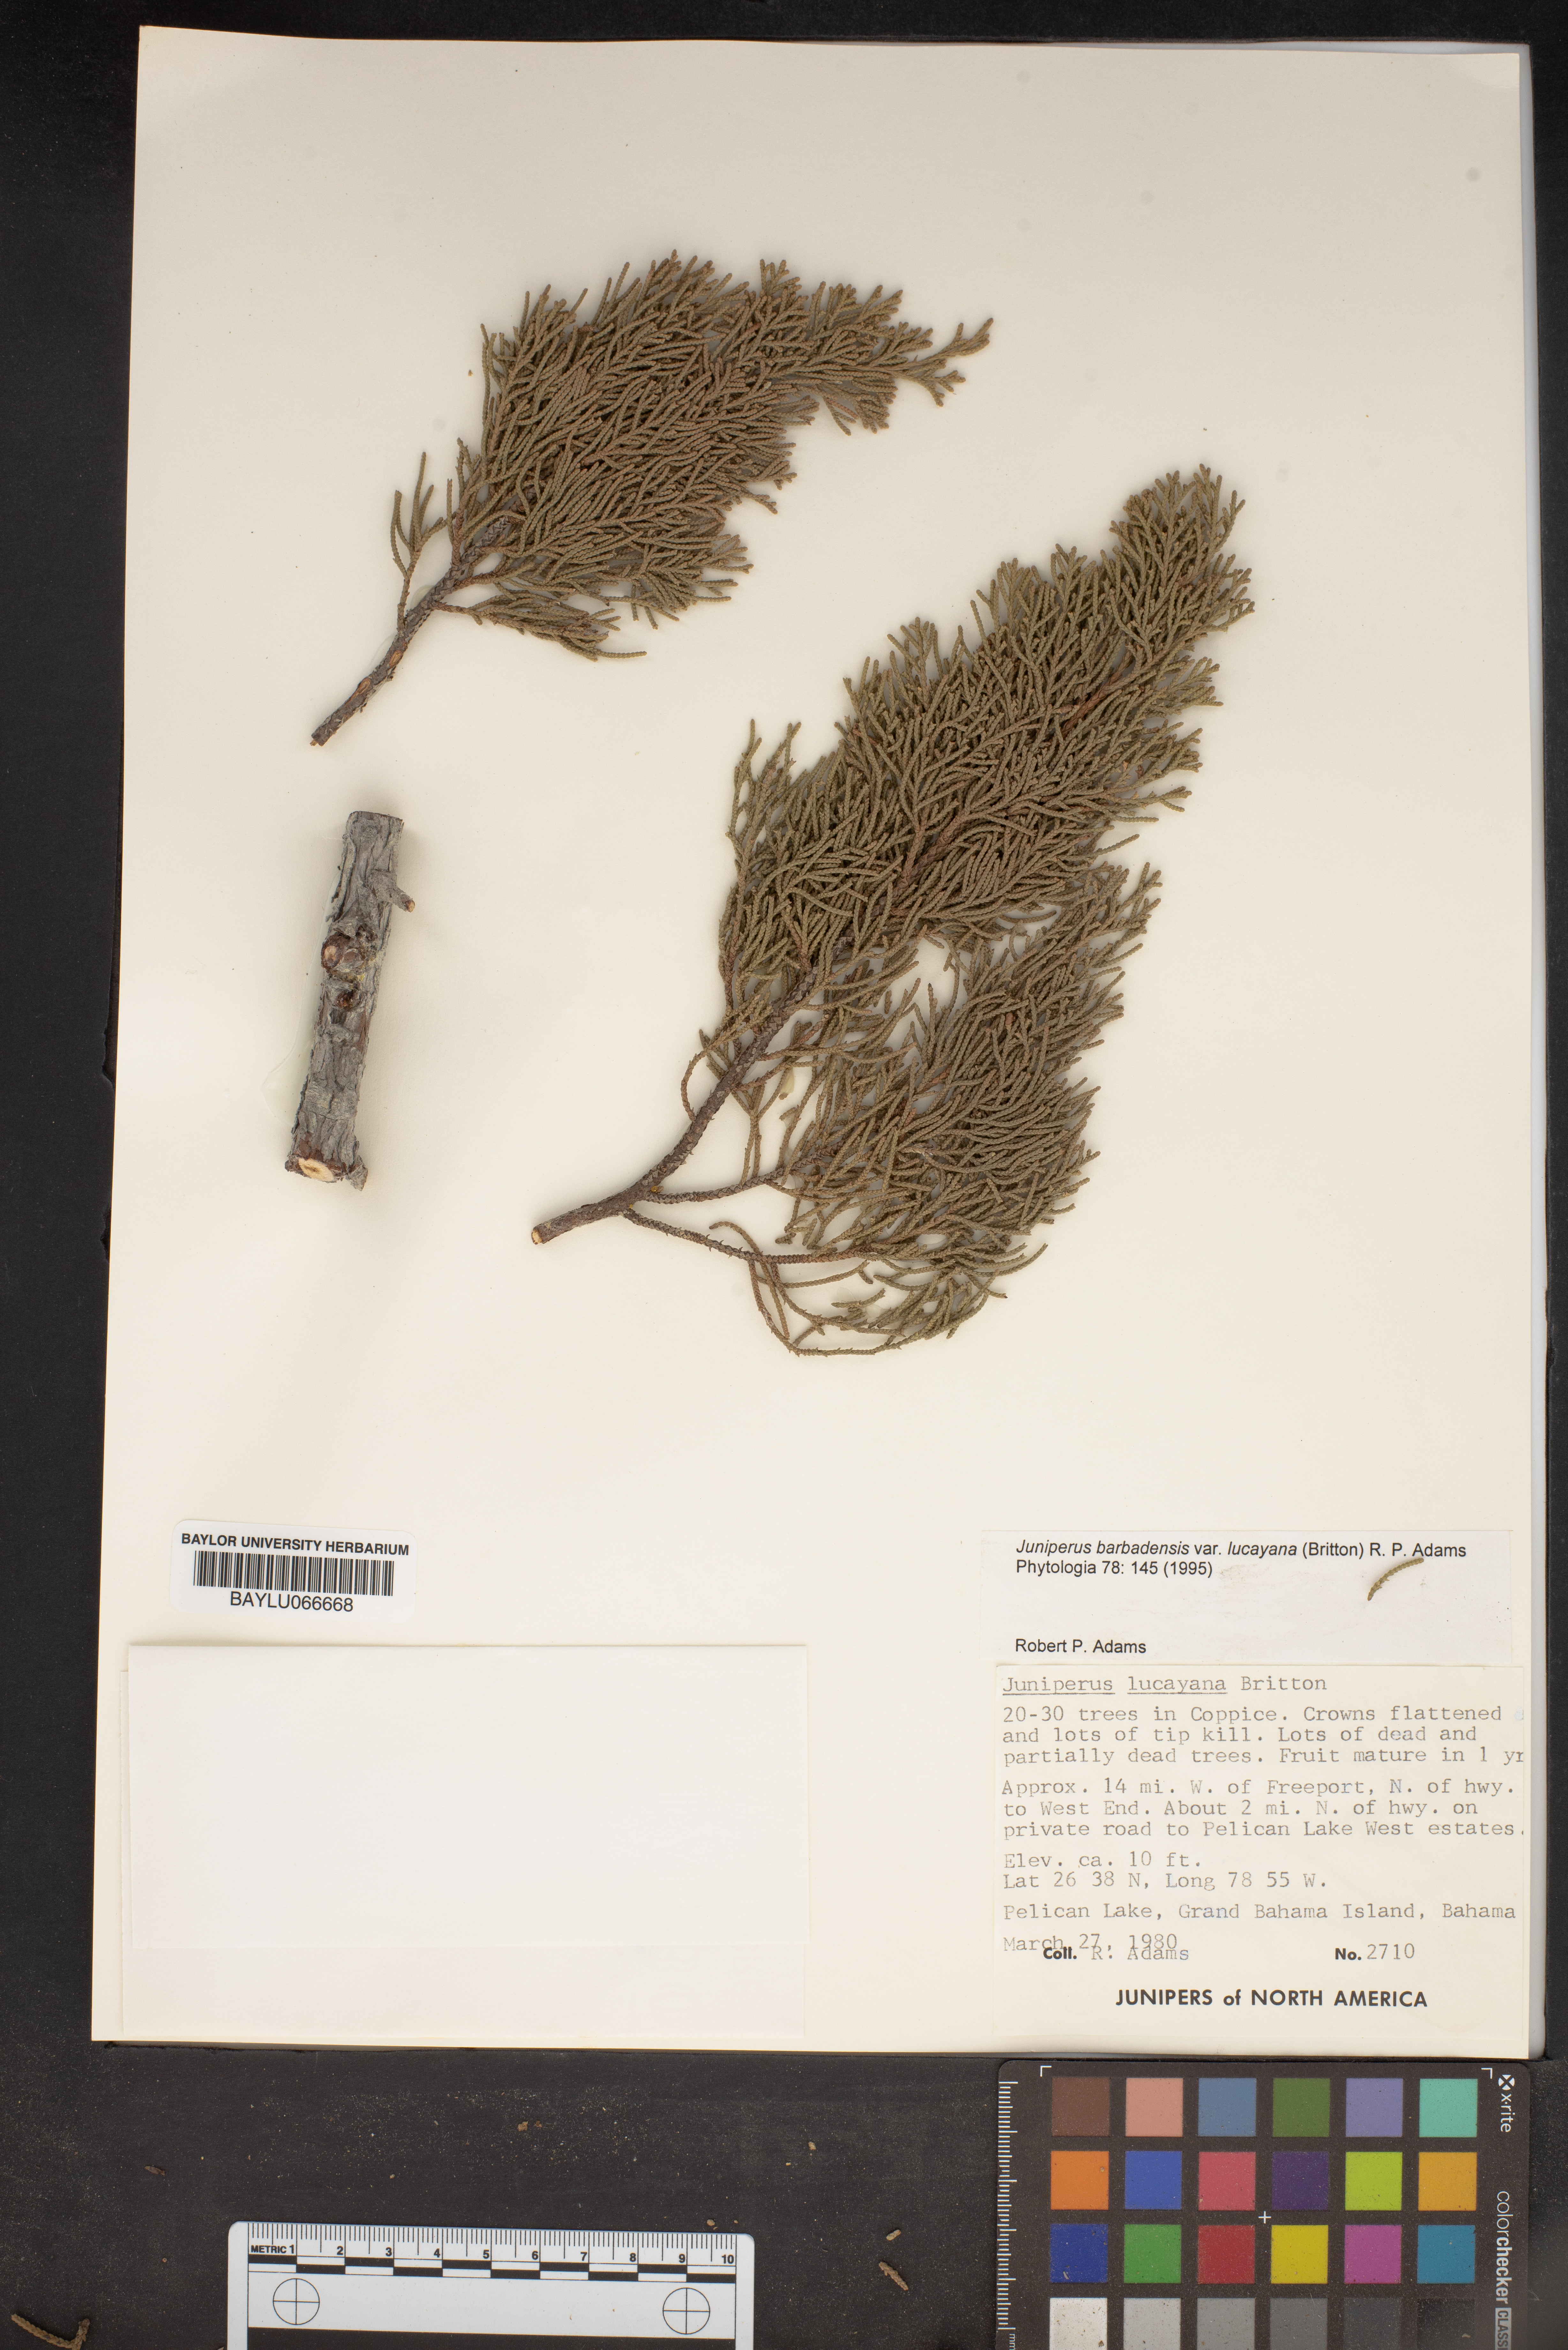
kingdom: Plantae
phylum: Tracheophyta
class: Pinopsida
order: Pinales
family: Cupressaceae
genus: Juniperus
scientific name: Juniperus barbadensis
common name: West indies juniper
